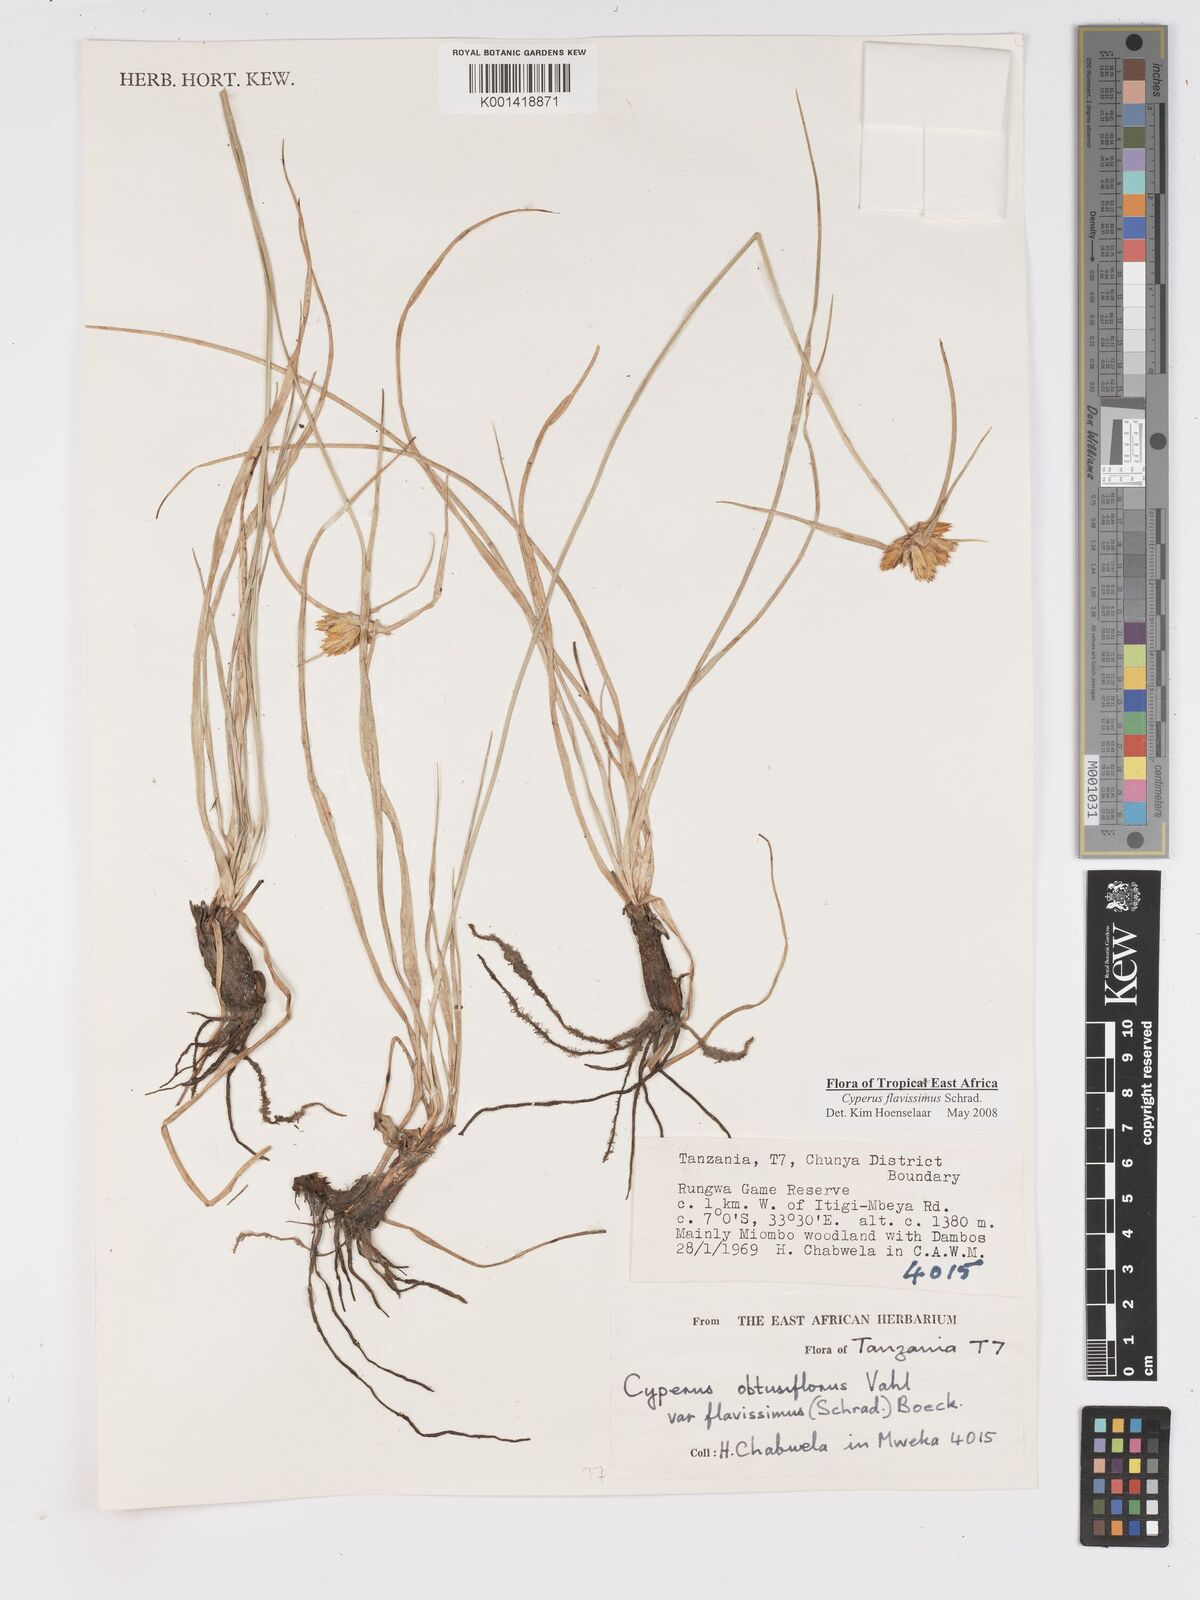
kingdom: Plantae
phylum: Tracheophyta
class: Liliopsida
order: Poales
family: Cyperaceae
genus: Cyperus
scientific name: Cyperus sphaerocephalus
